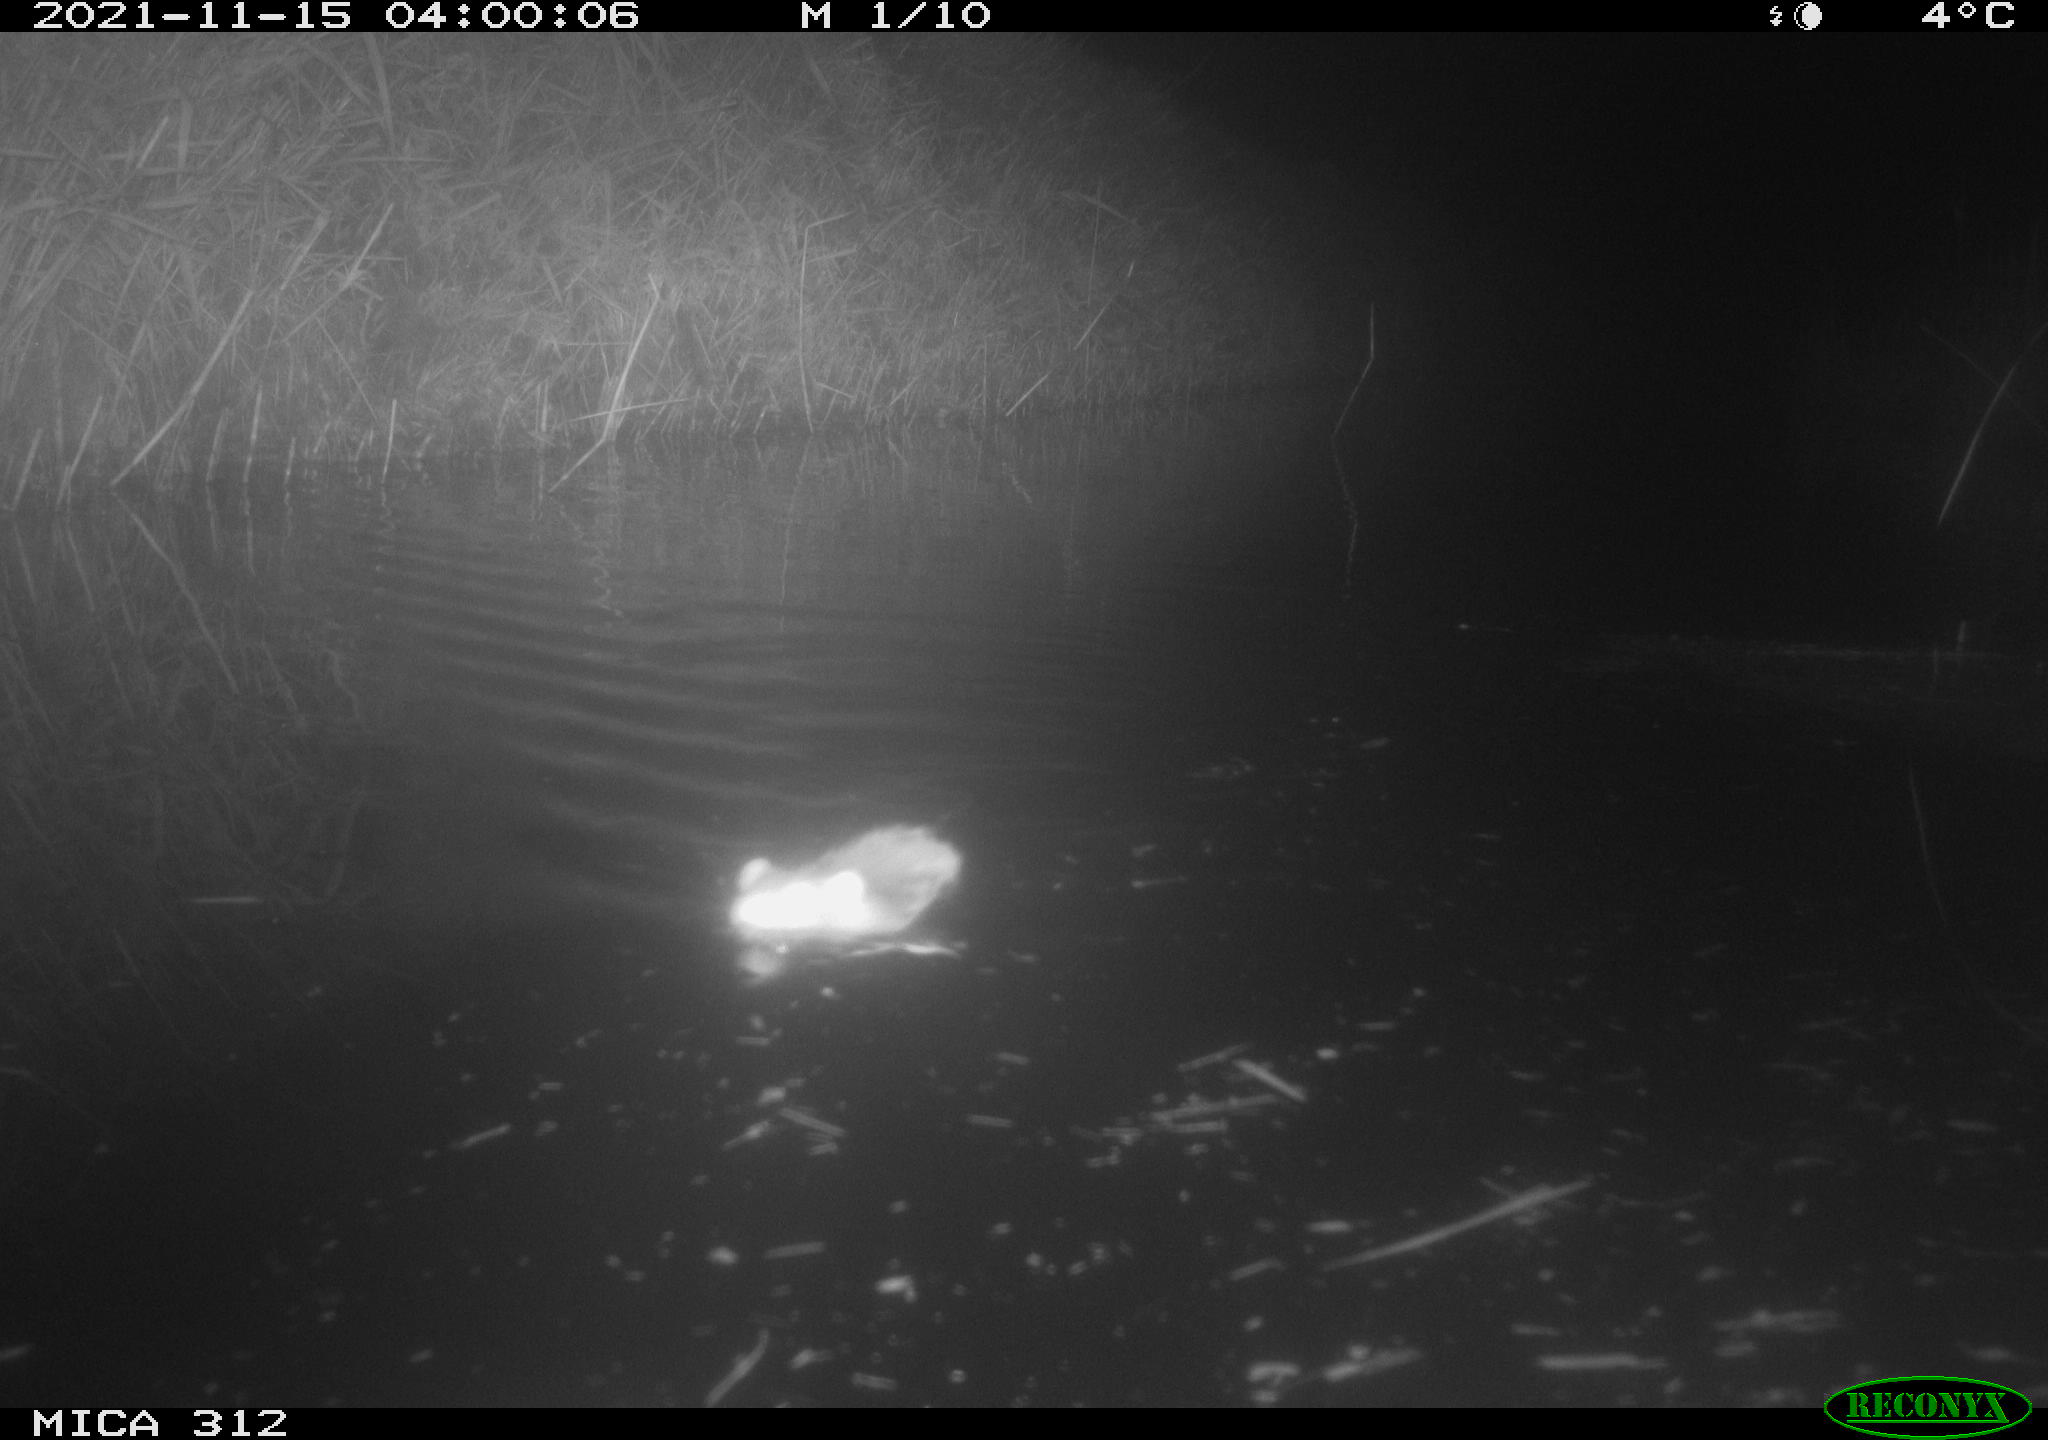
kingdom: Animalia
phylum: Chordata
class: Aves
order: Gruiformes
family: Rallidae
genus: Gallinula
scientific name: Gallinula chloropus
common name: Common moorhen
